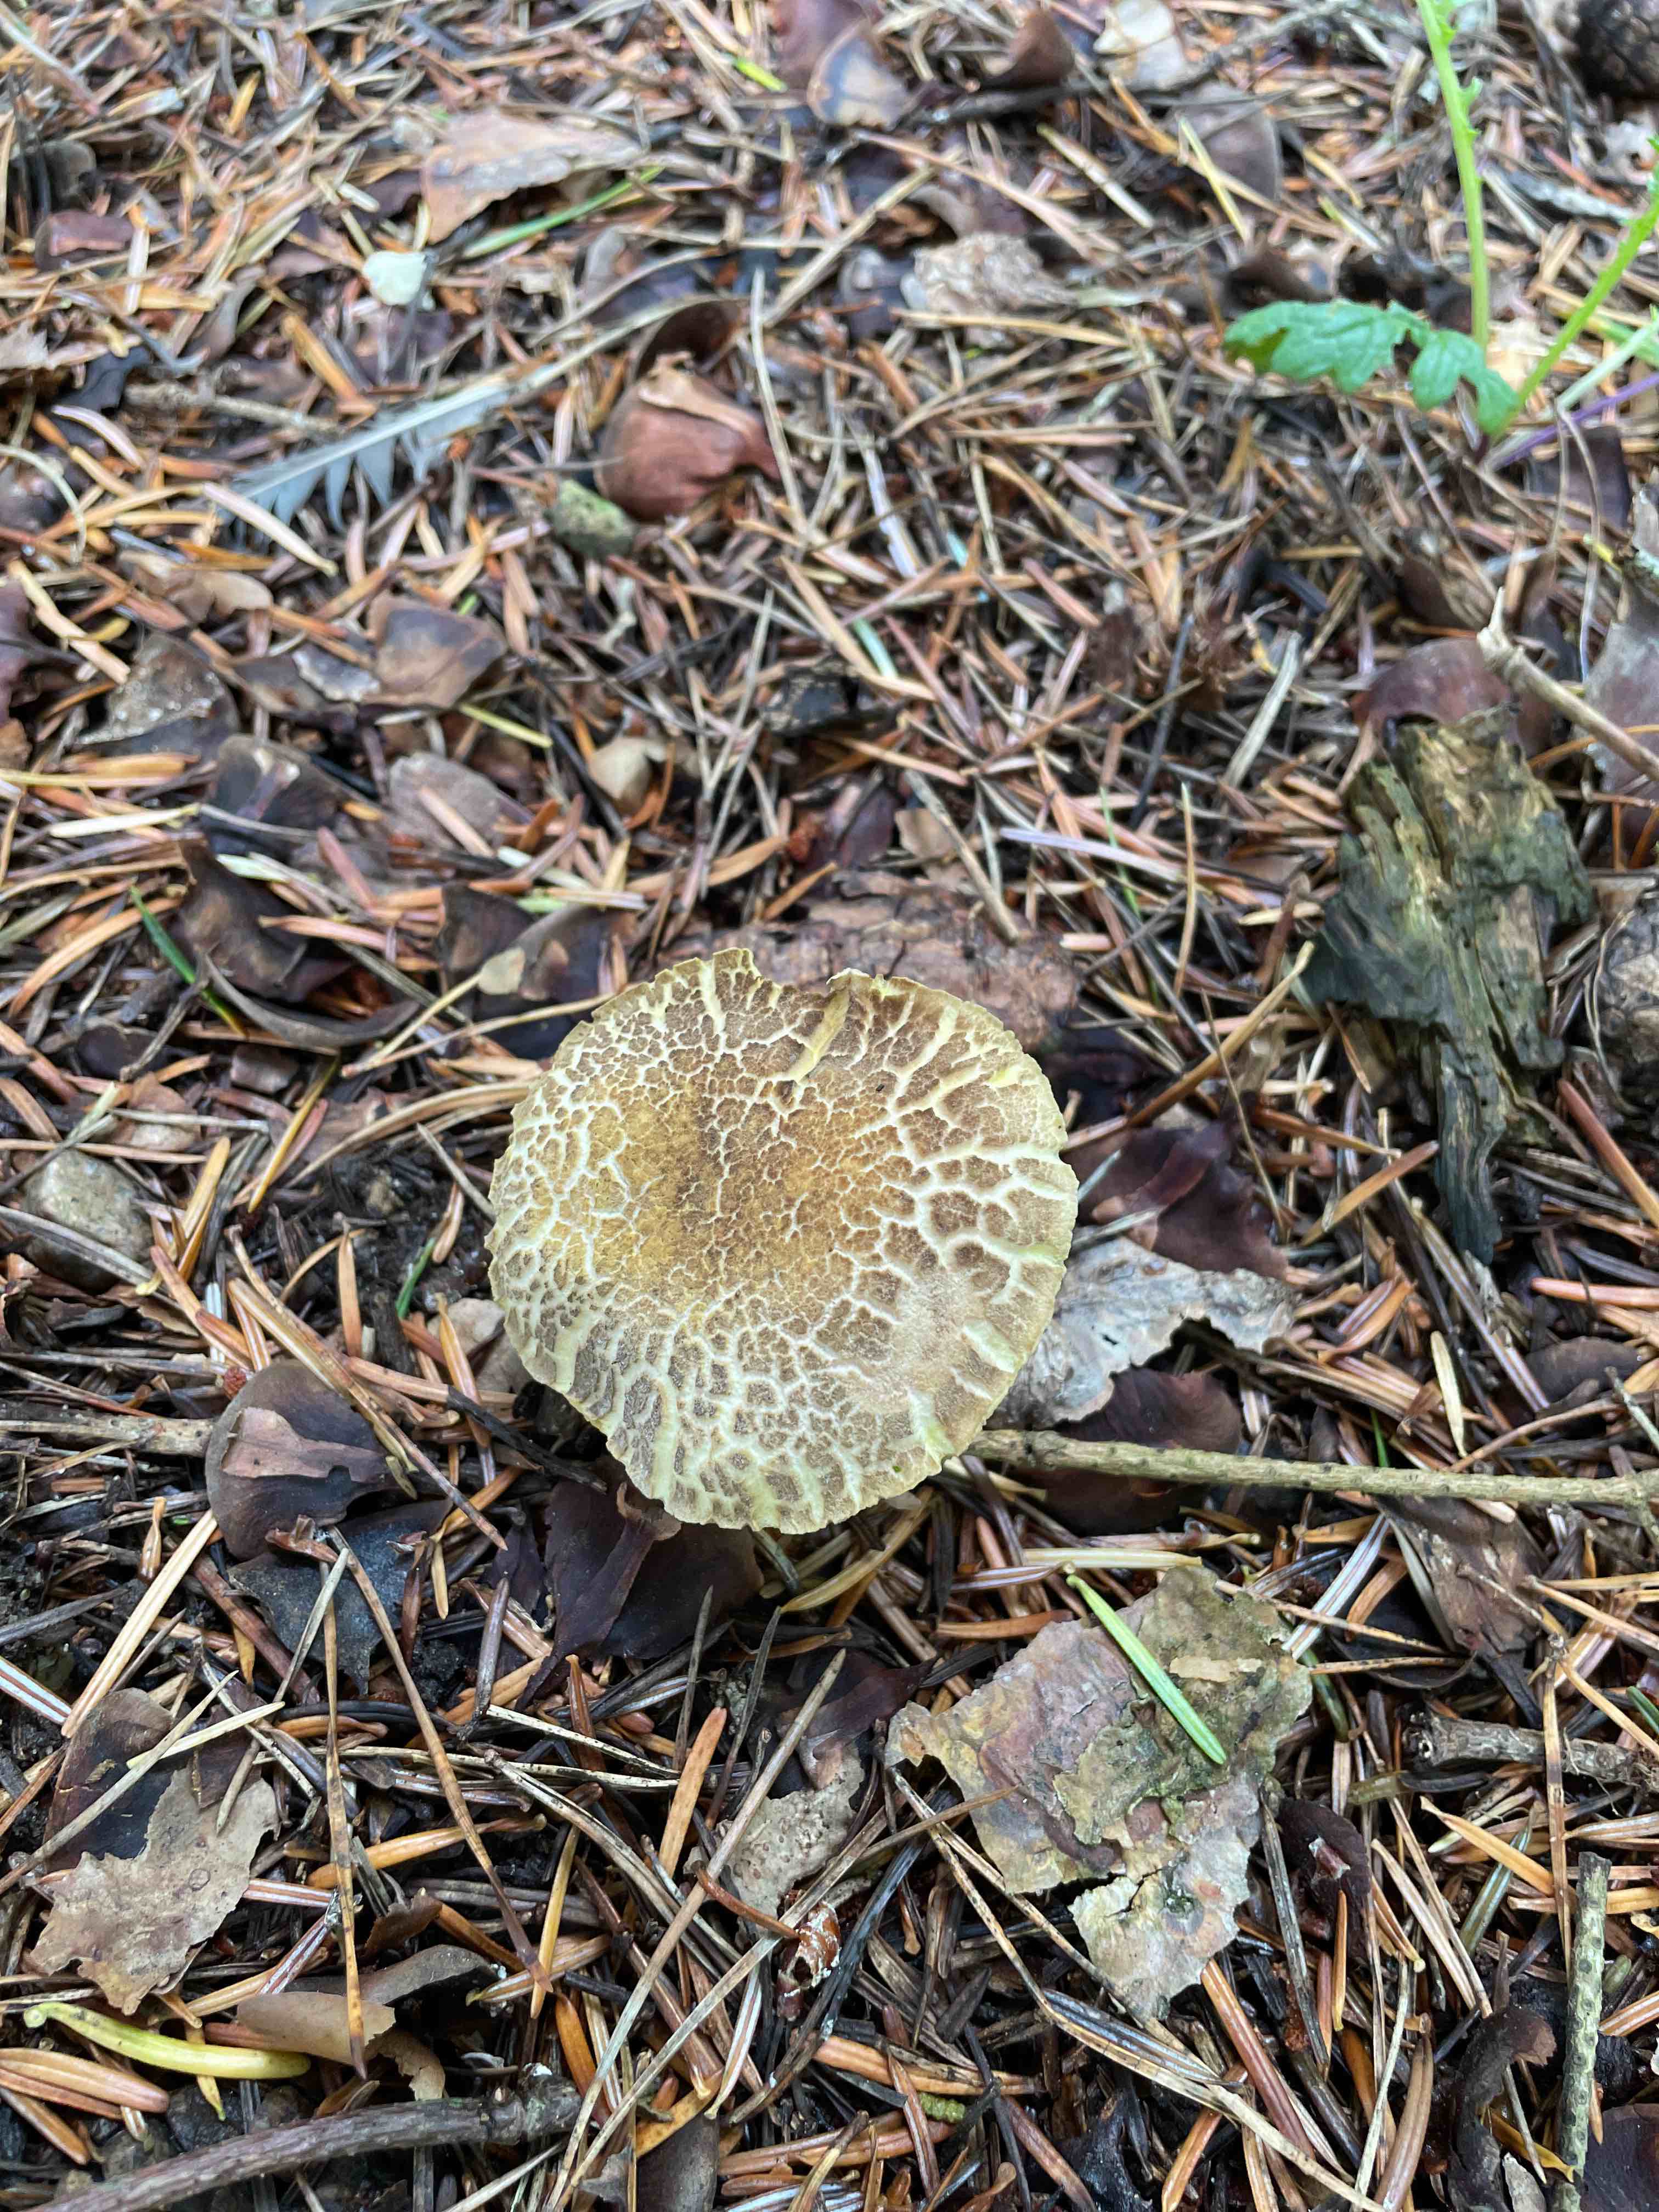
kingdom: Fungi
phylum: Basidiomycota
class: Agaricomycetes
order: Boletales
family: Boletaceae
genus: Xerocomellus
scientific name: Xerocomellus porosporus
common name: hvidsprukken rørhat
